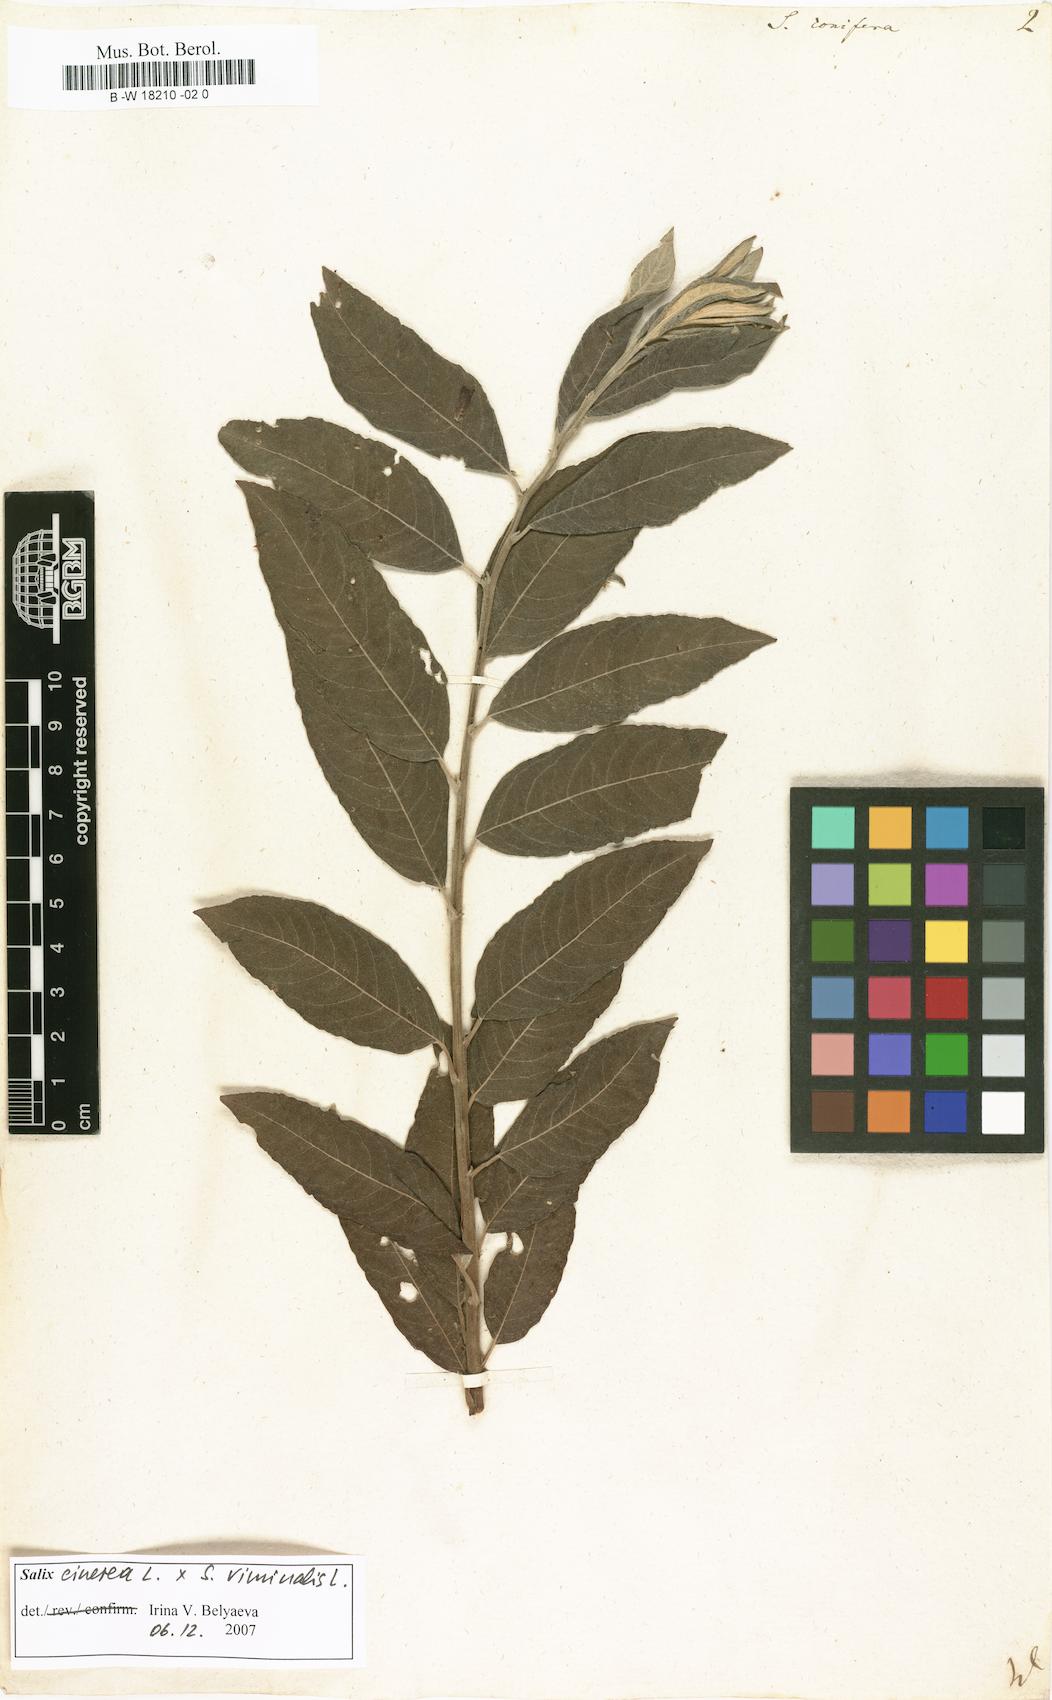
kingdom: Plantae
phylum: Tracheophyta
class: Magnoliopsida
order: Malpighiales
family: Salicaceae
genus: Salix
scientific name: Salix conifera
